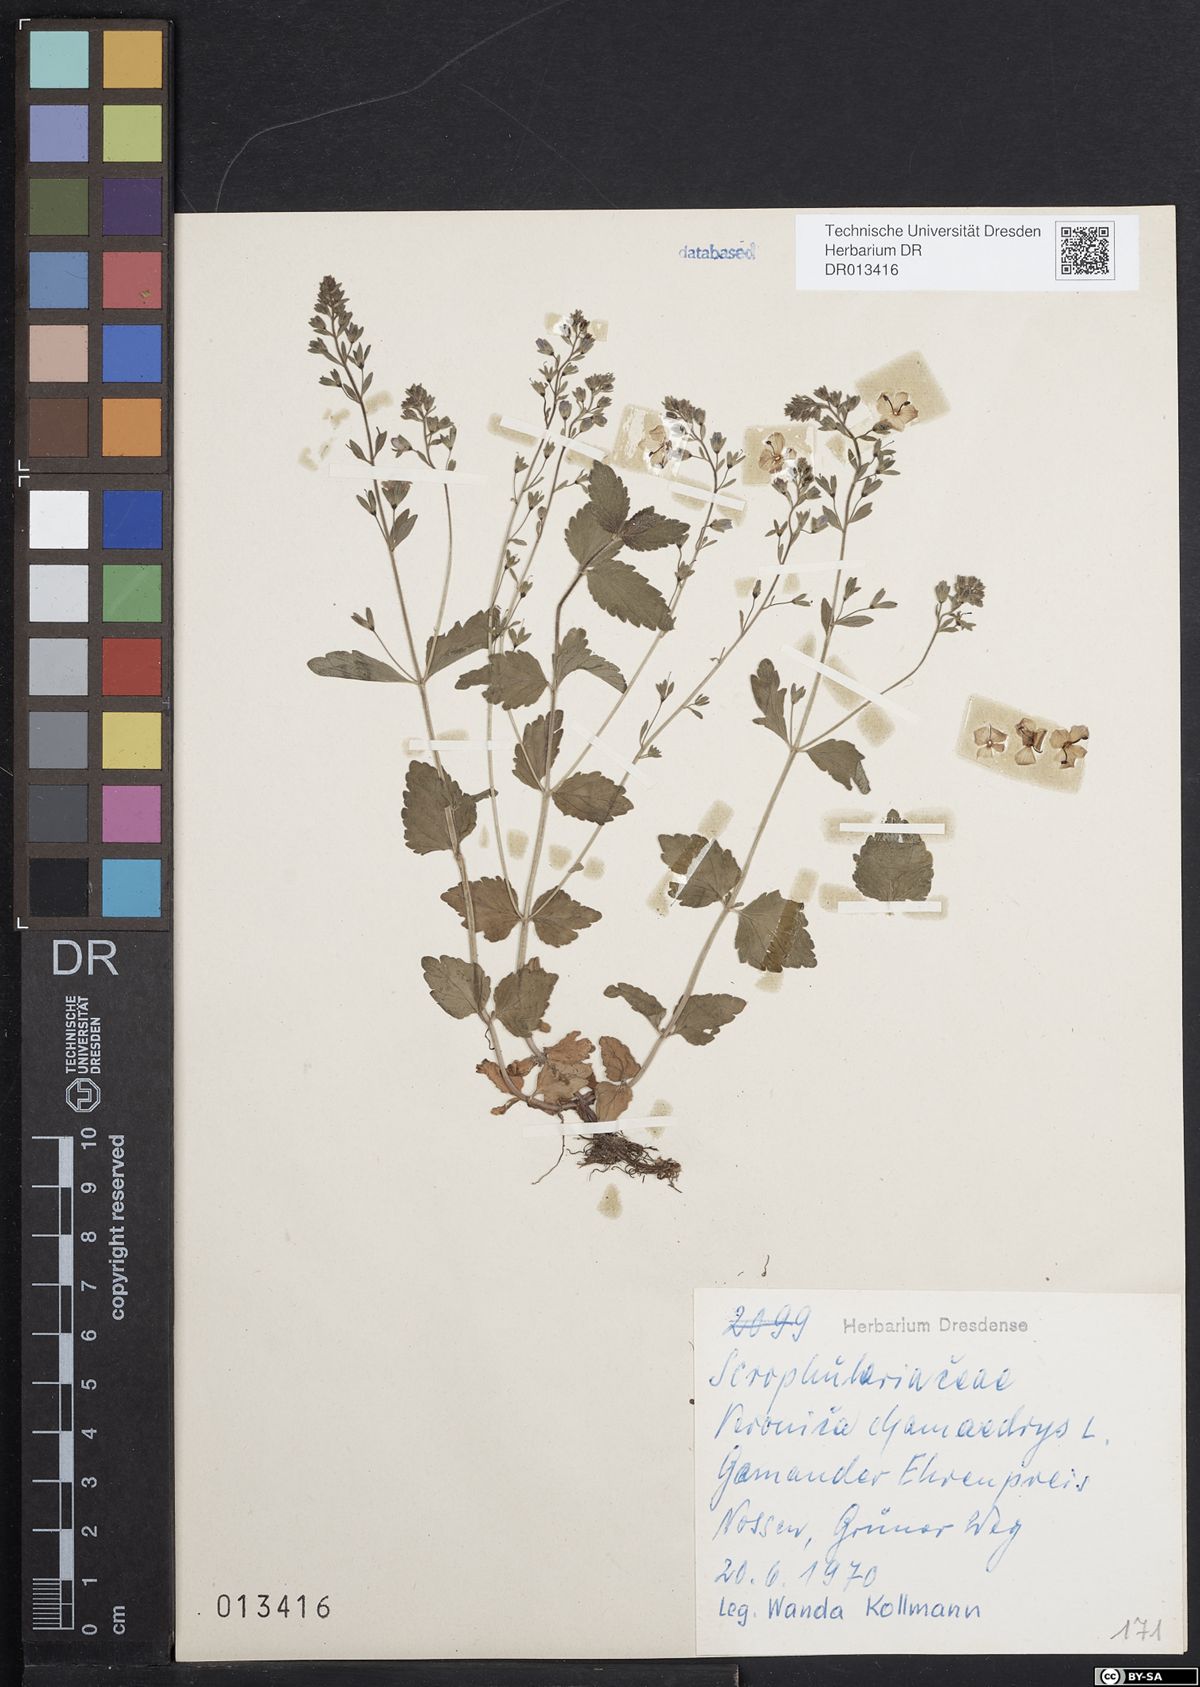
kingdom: Plantae
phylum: Tracheophyta
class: Magnoliopsida
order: Lamiales
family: Plantaginaceae
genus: Veronica
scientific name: Veronica chamaedrys
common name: Germander speedwell
